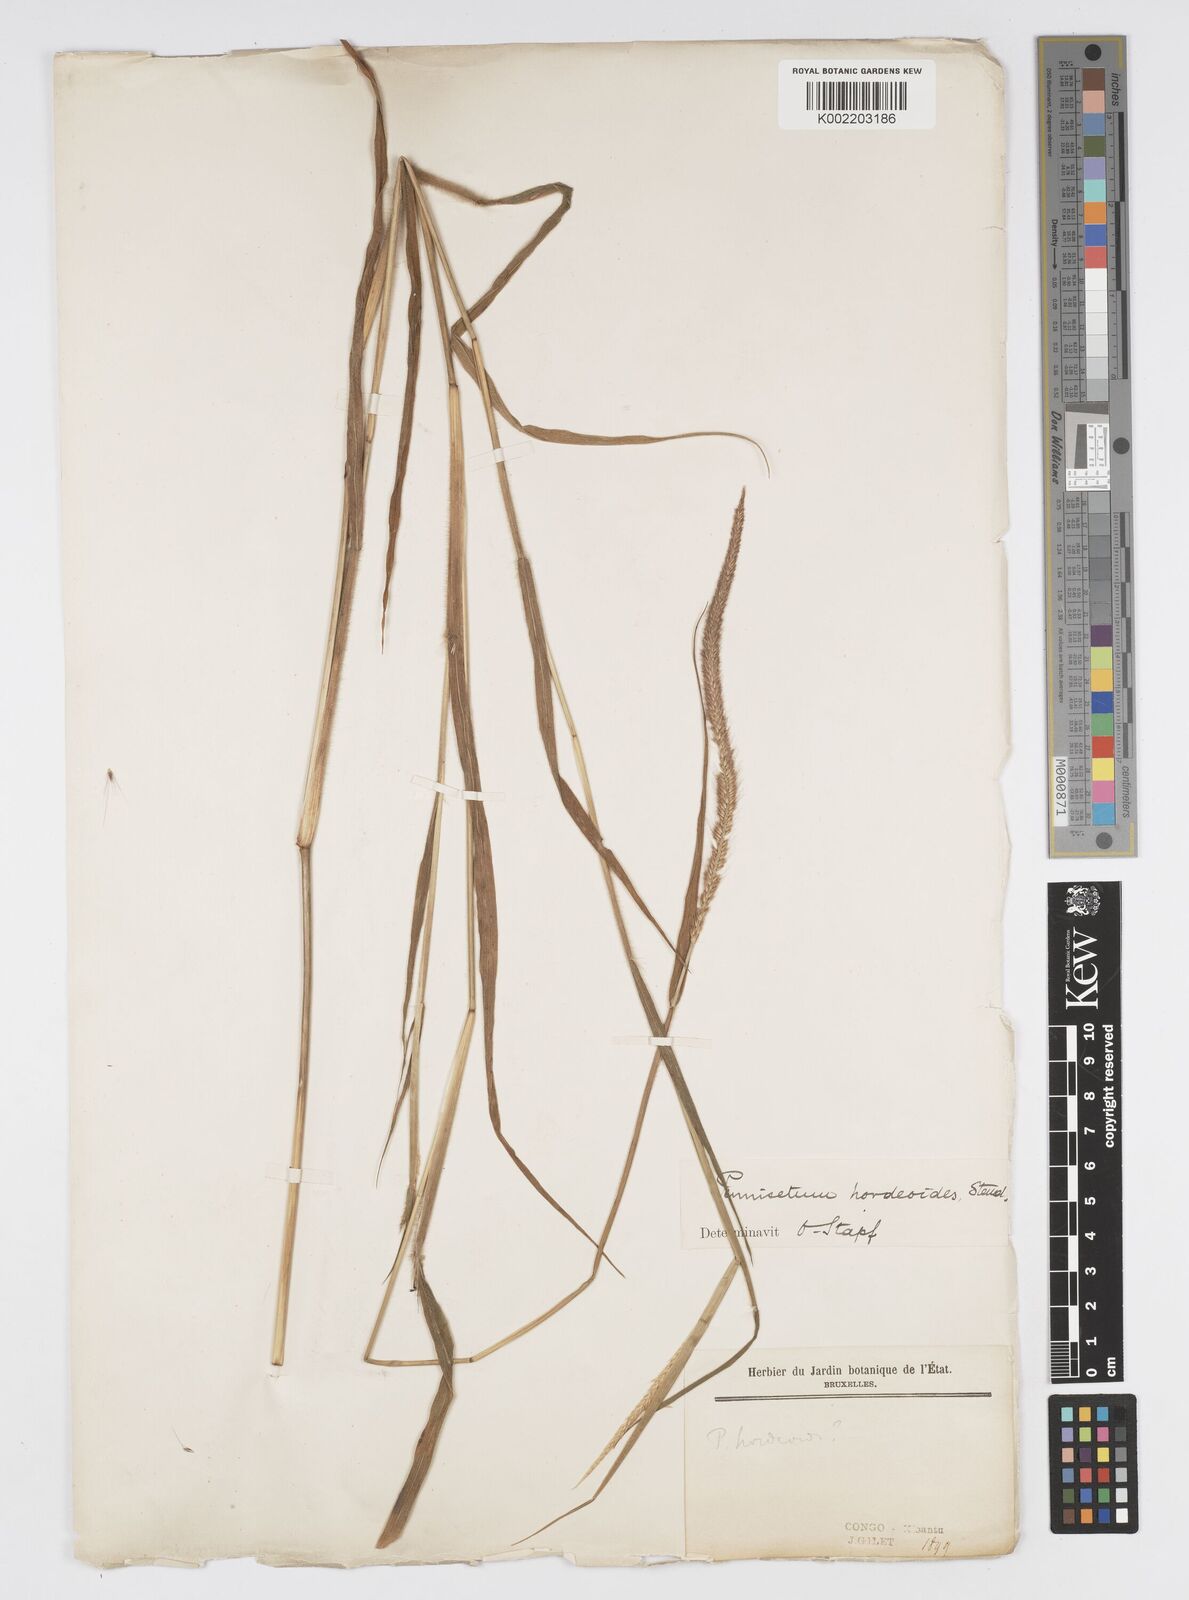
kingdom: Plantae
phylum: Tracheophyta
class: Liliopsida
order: Poales
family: Poaceae
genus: Cenchrus
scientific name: Cenchrus hordeoides
